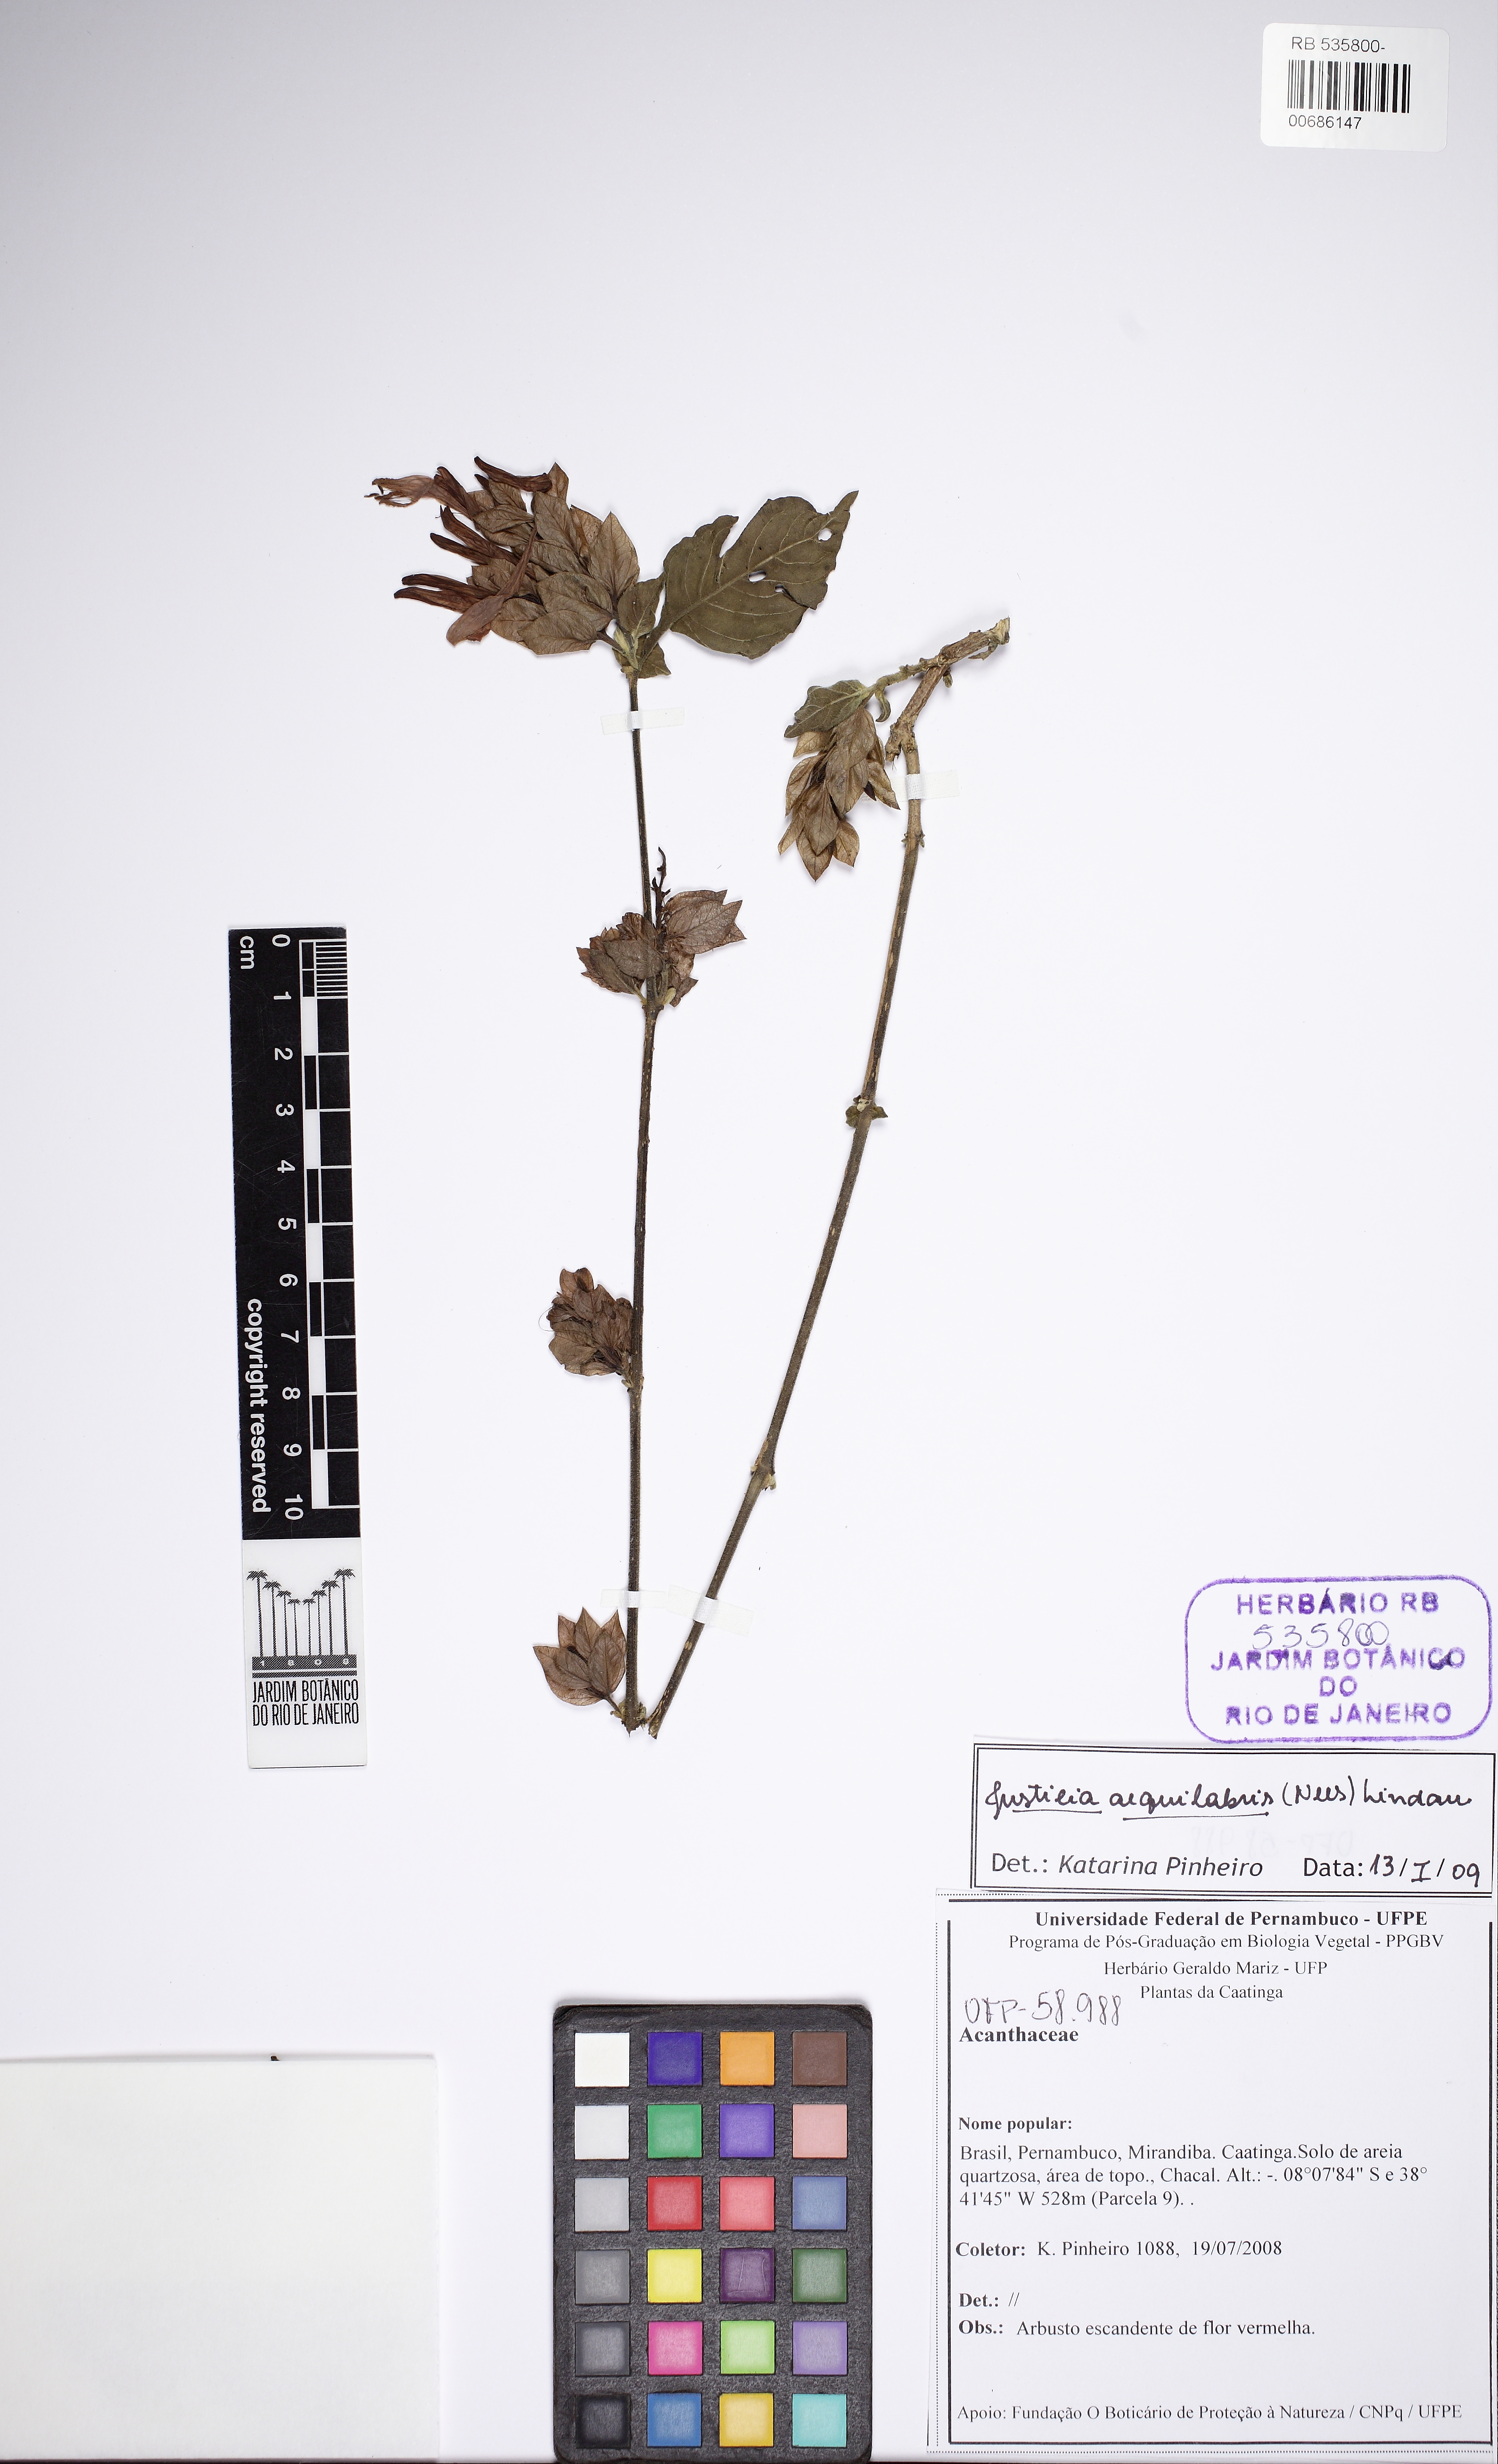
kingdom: Plantae
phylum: Tracheophyta
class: Magnoliopsida
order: Lamiales
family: Acanthaceae
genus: Justicia
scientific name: Justicia aequilabris
